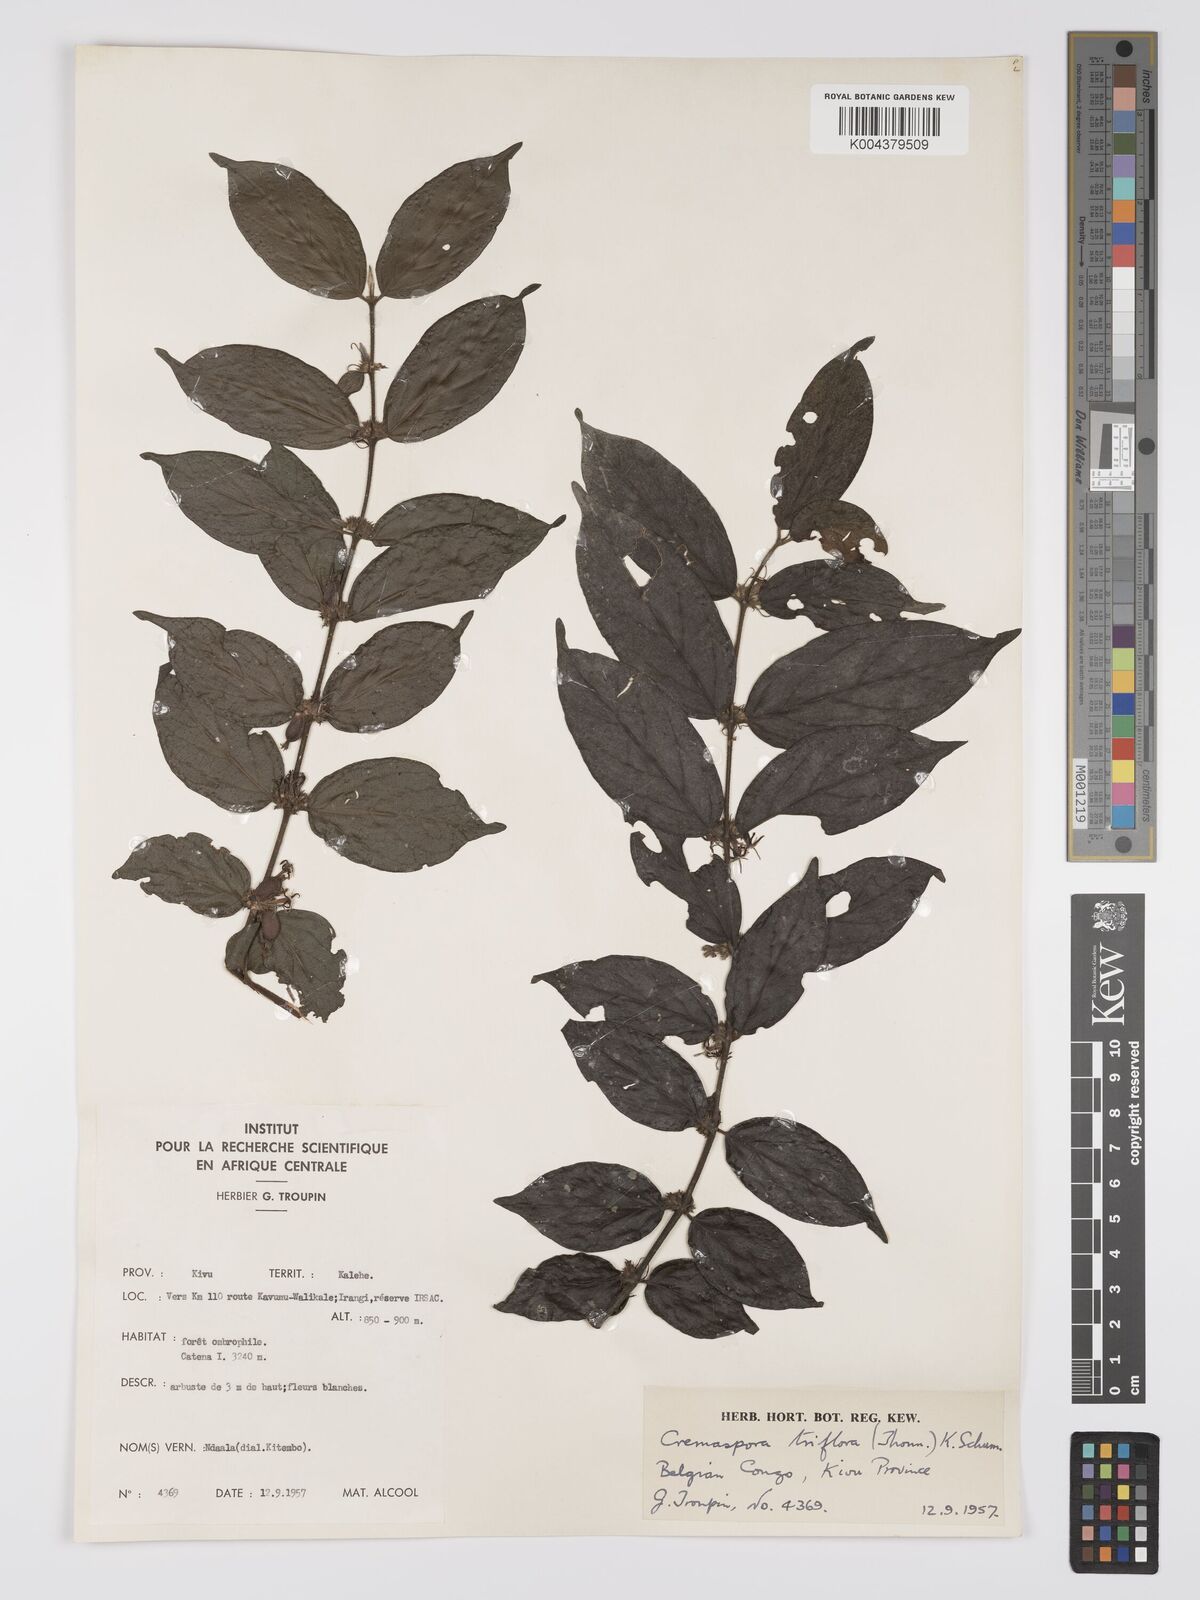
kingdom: Plantae
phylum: Tracheophyta
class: Magnoliopsida
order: Gentianales
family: Rubiaceae
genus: Cremaspora
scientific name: Cremaspora triflora
